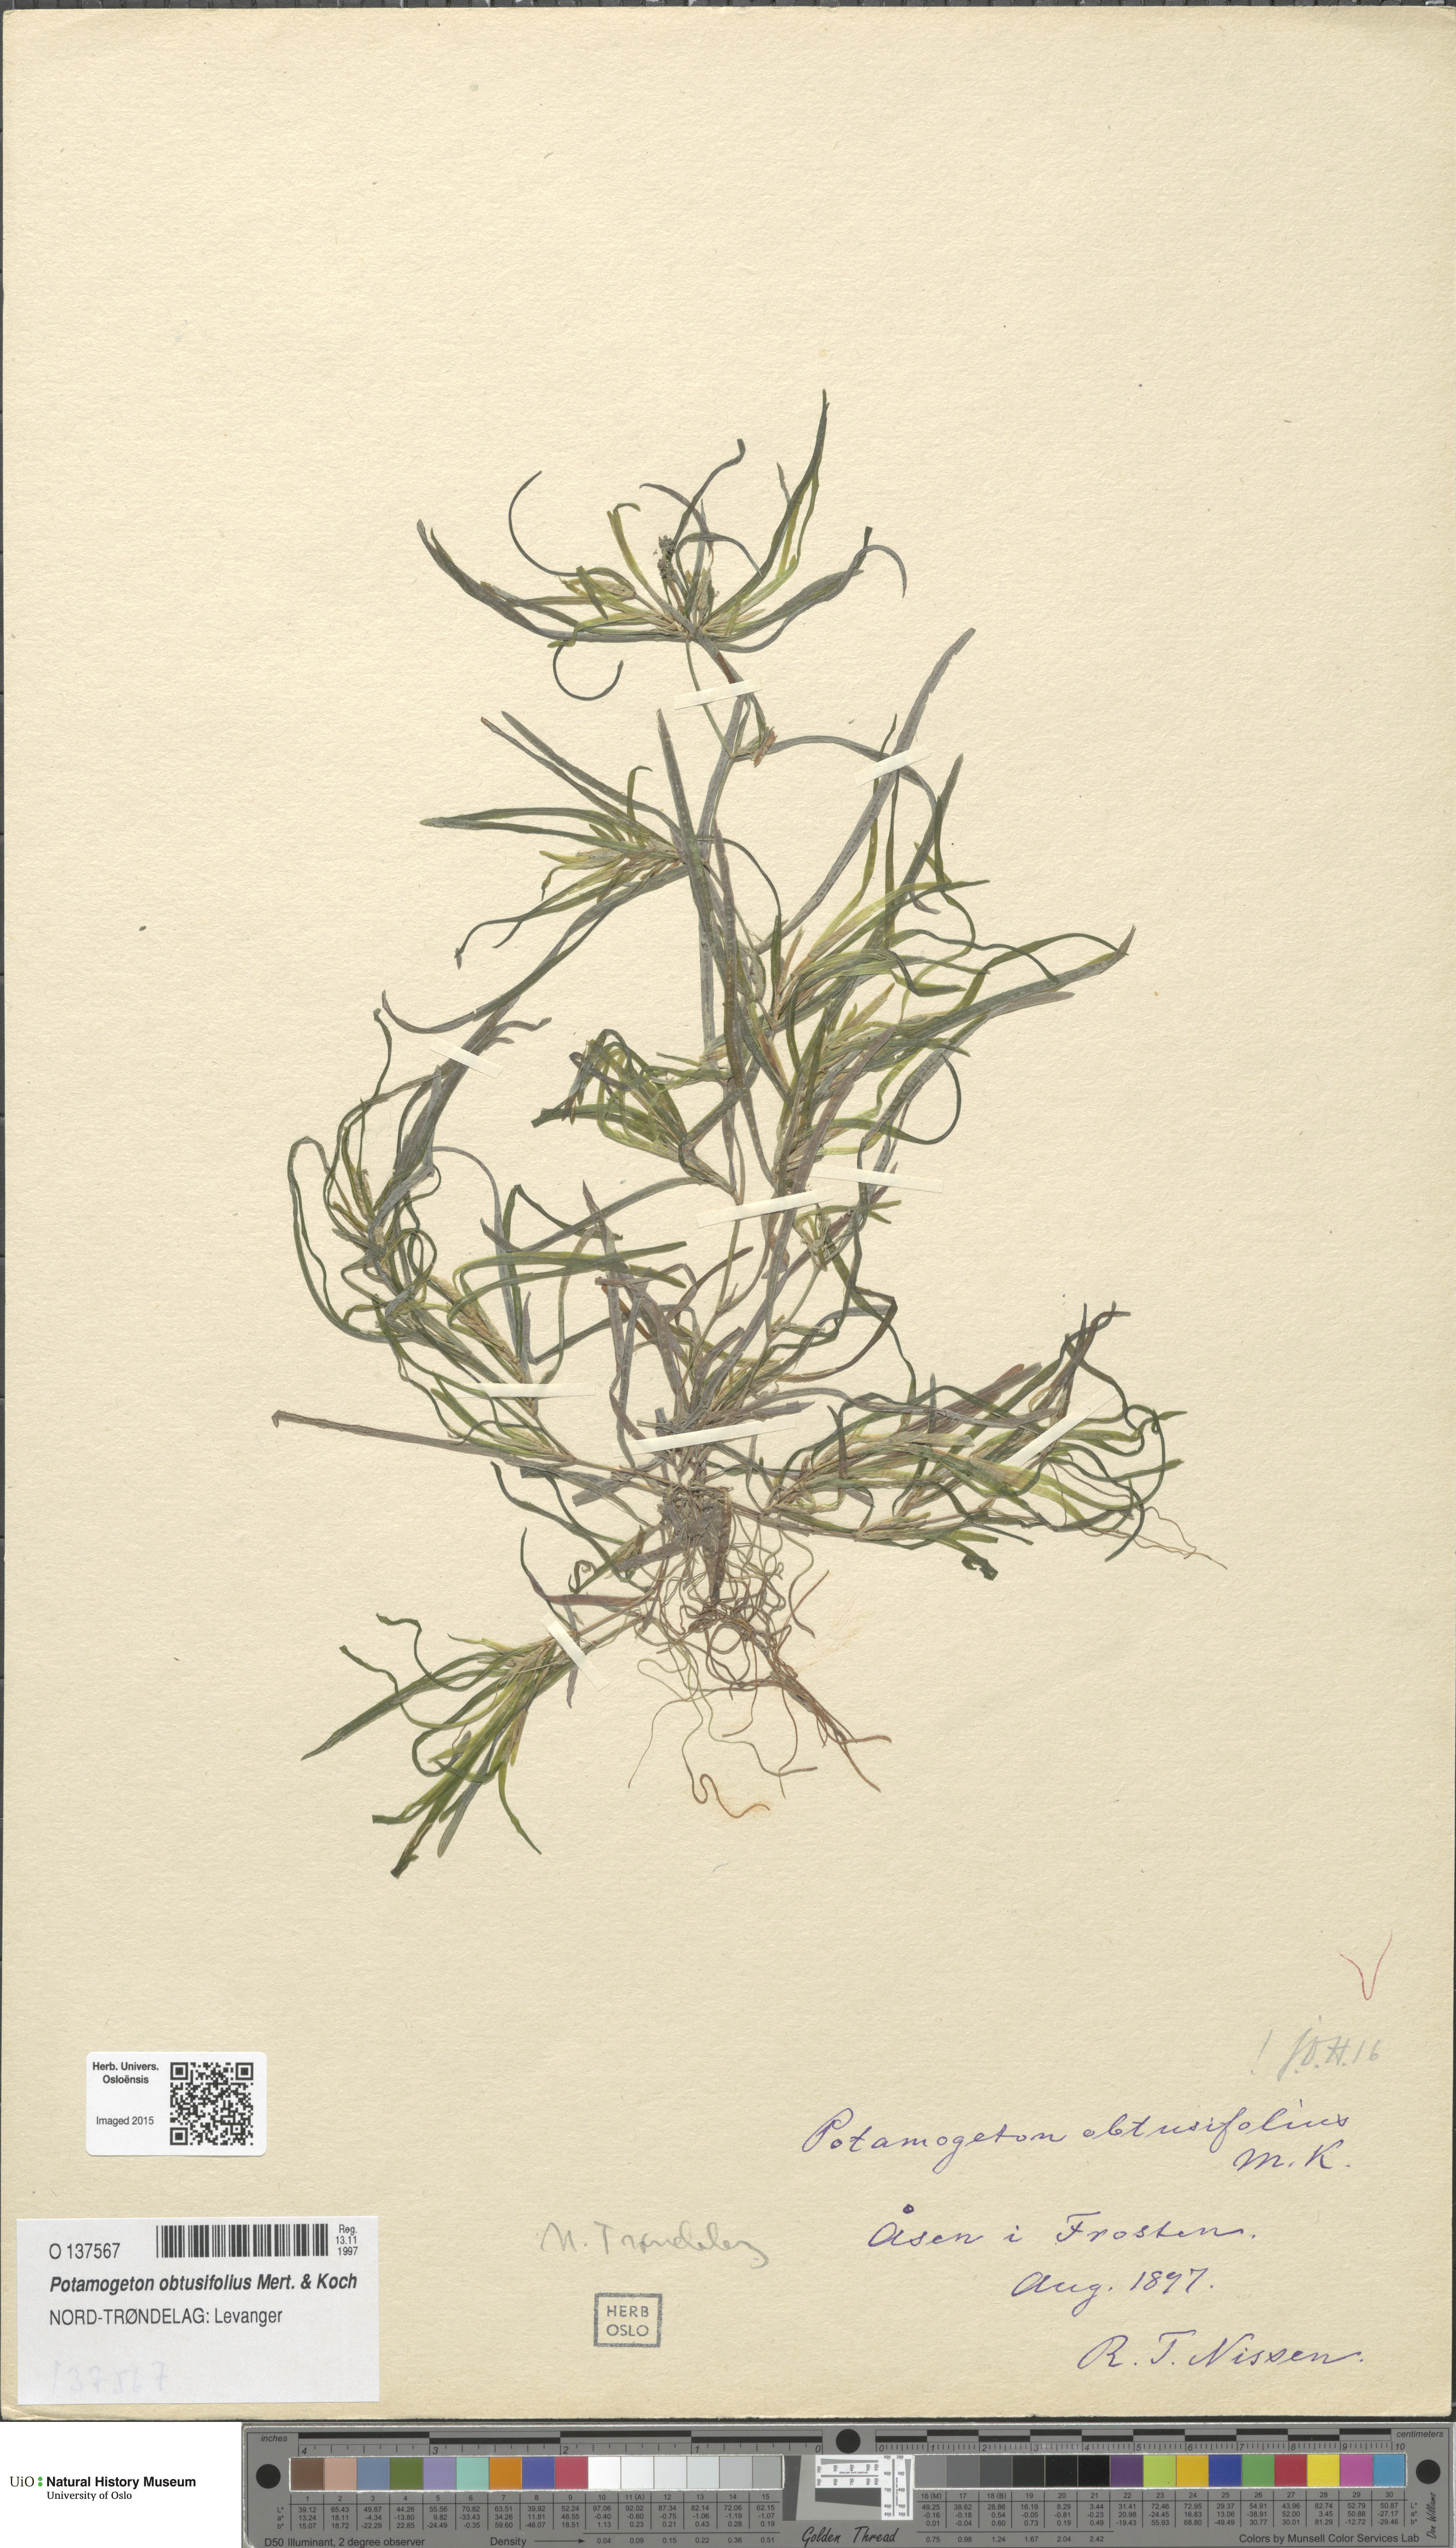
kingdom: Plantae
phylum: Tracheophyta
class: Liliopsida
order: Alismatales
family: Potamogetonaceae
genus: Potamogeton
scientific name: Potamogeton obtusifolius
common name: Blunt-leaved pondweed
